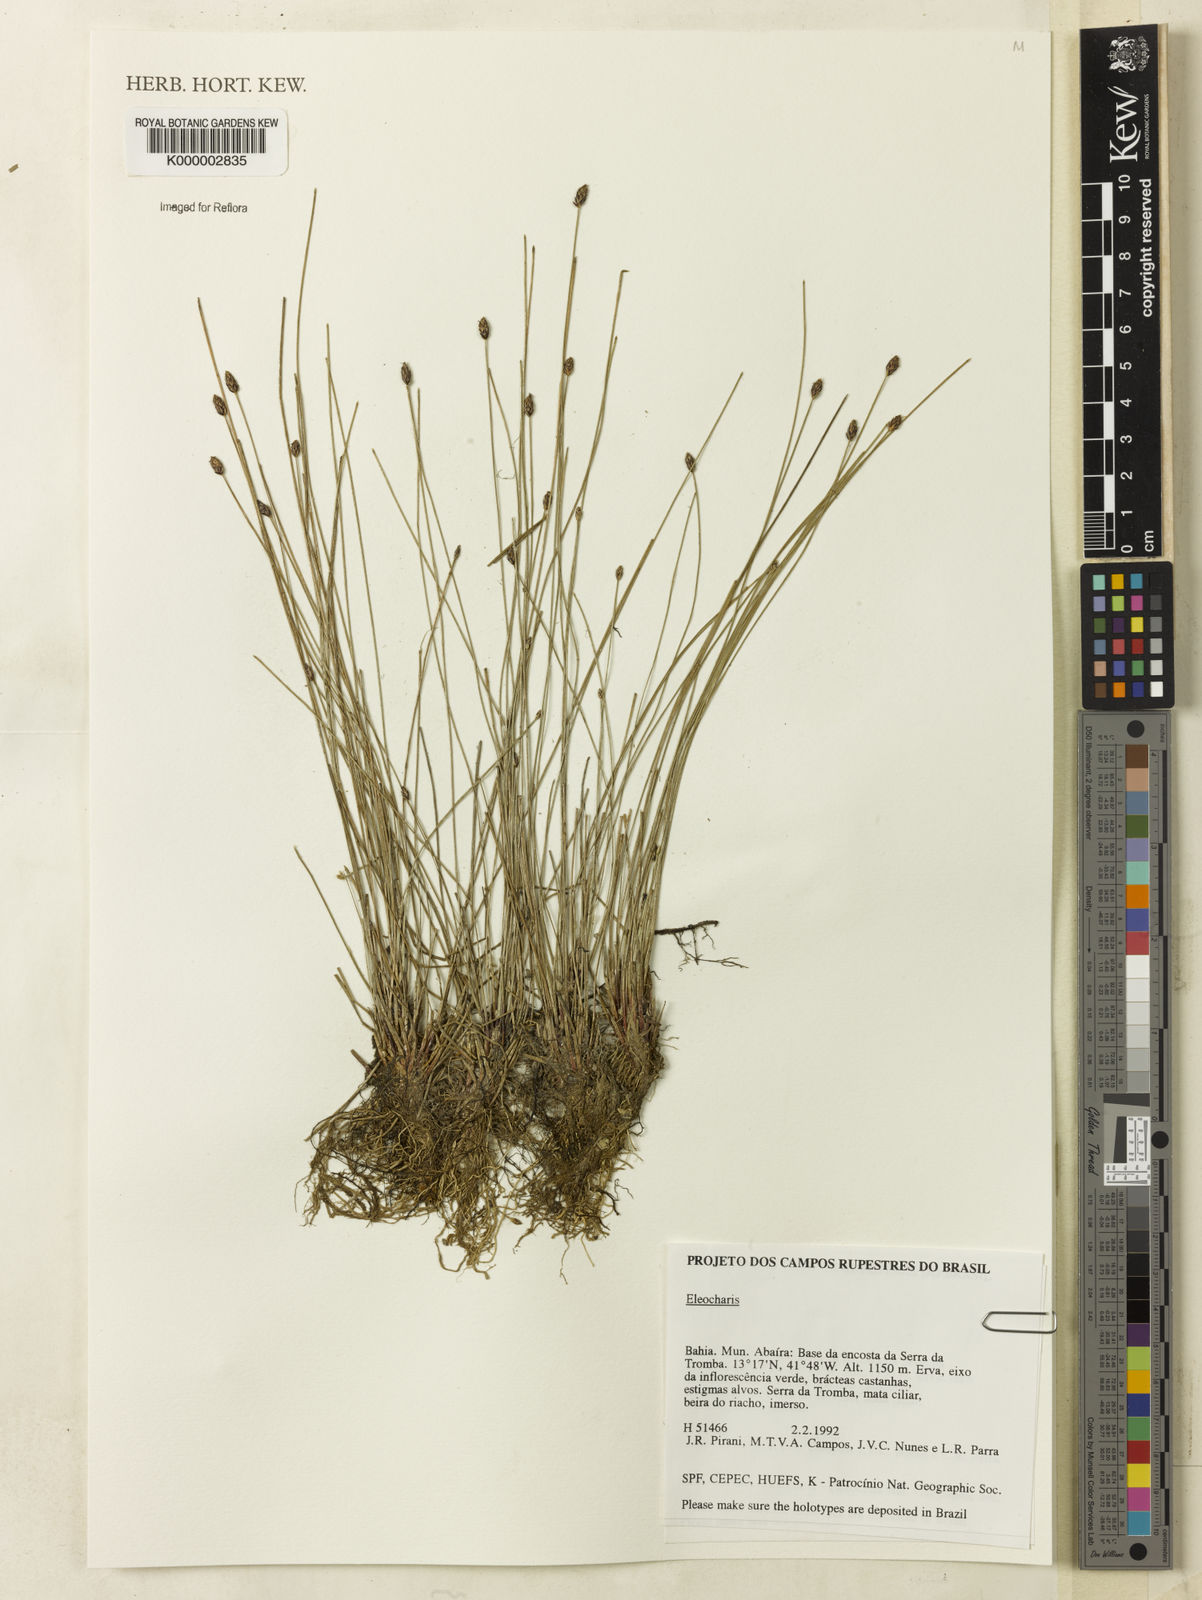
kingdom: Plantae
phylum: Tracheophyta
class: Liliopsida
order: Poales
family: Cyperaceae
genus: Eleocharis
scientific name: Eleocharis
